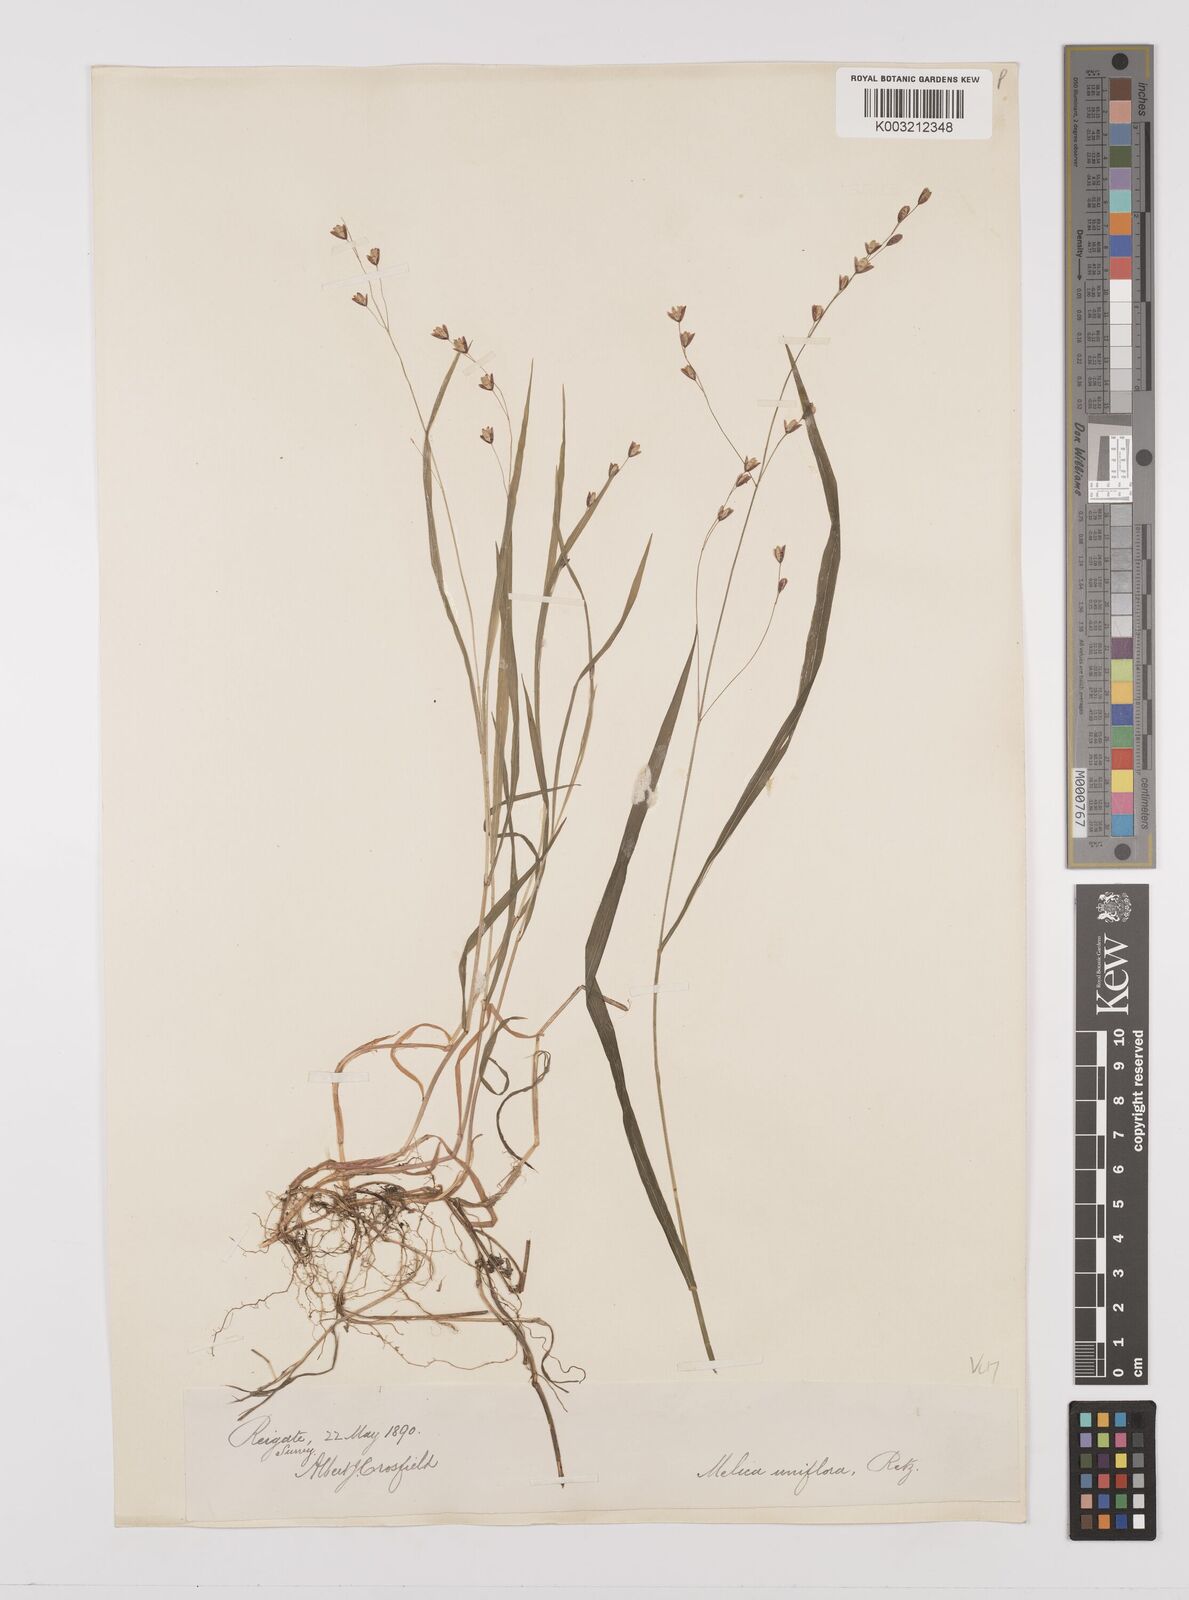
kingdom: Plantae
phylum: Tracheophyta
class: Liliopsida
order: Poales
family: Poaceae
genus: Melica
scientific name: Melica uniflora
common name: Wood melick
